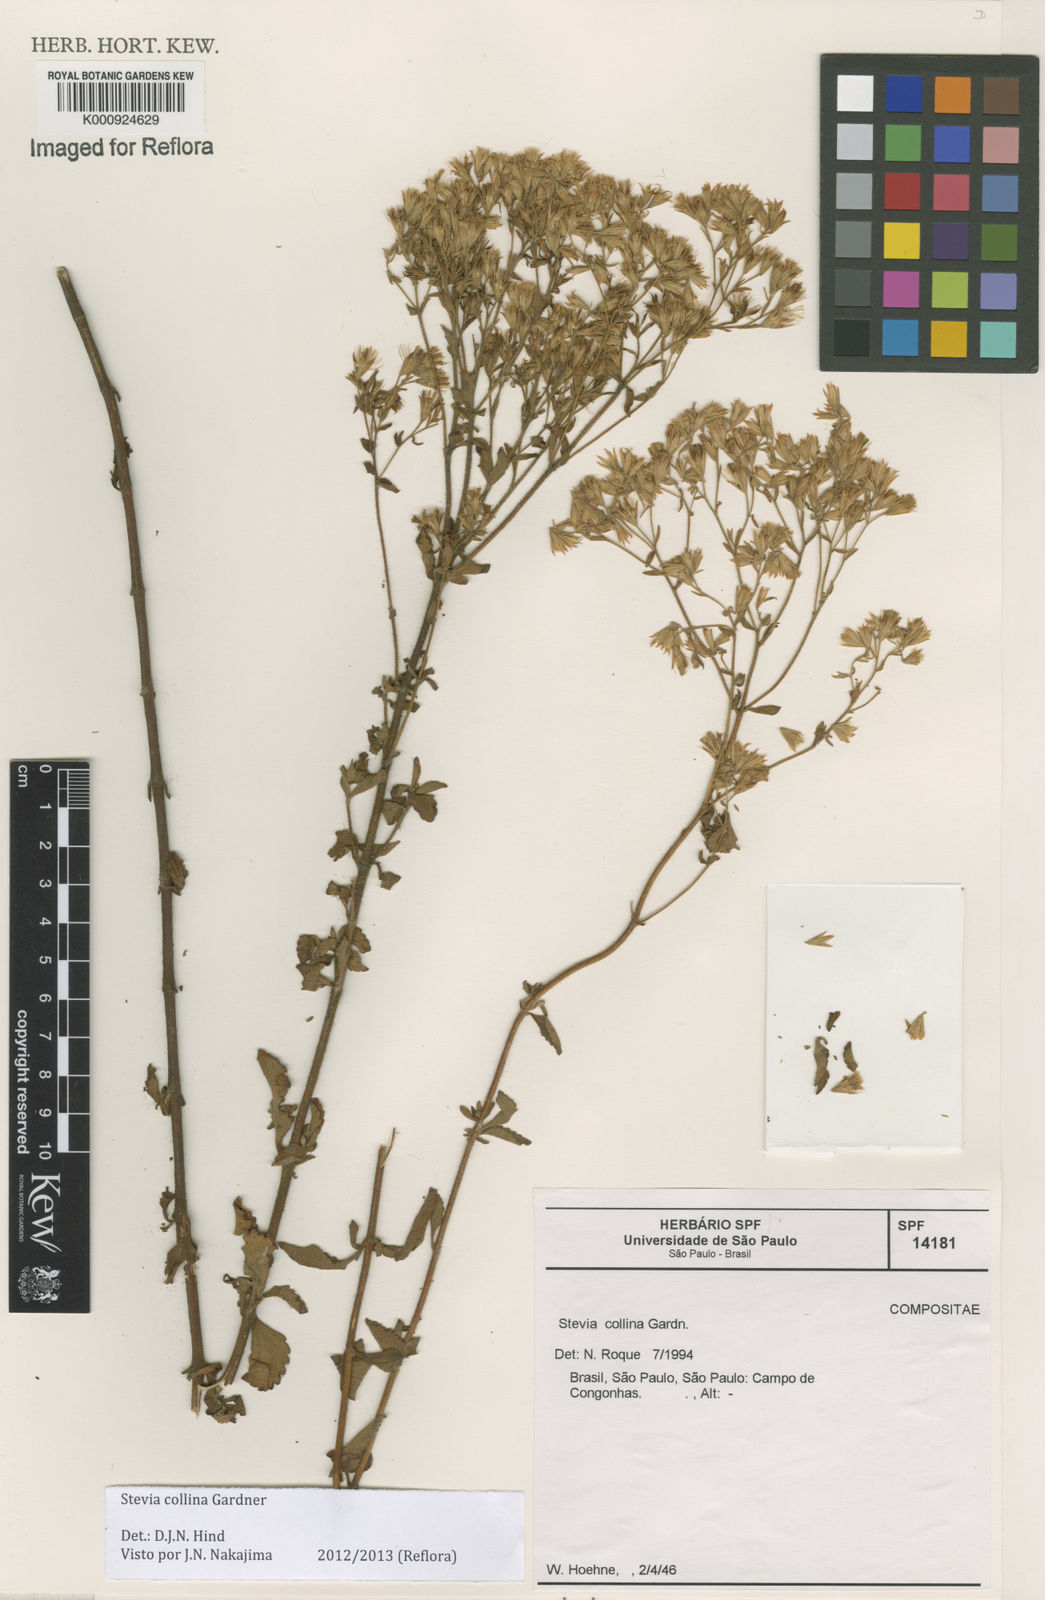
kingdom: Plantae
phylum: Tracheophyta
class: Magnoliopsida
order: Asterales
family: Asteraceae
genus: Stevia
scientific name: Stevia collina
